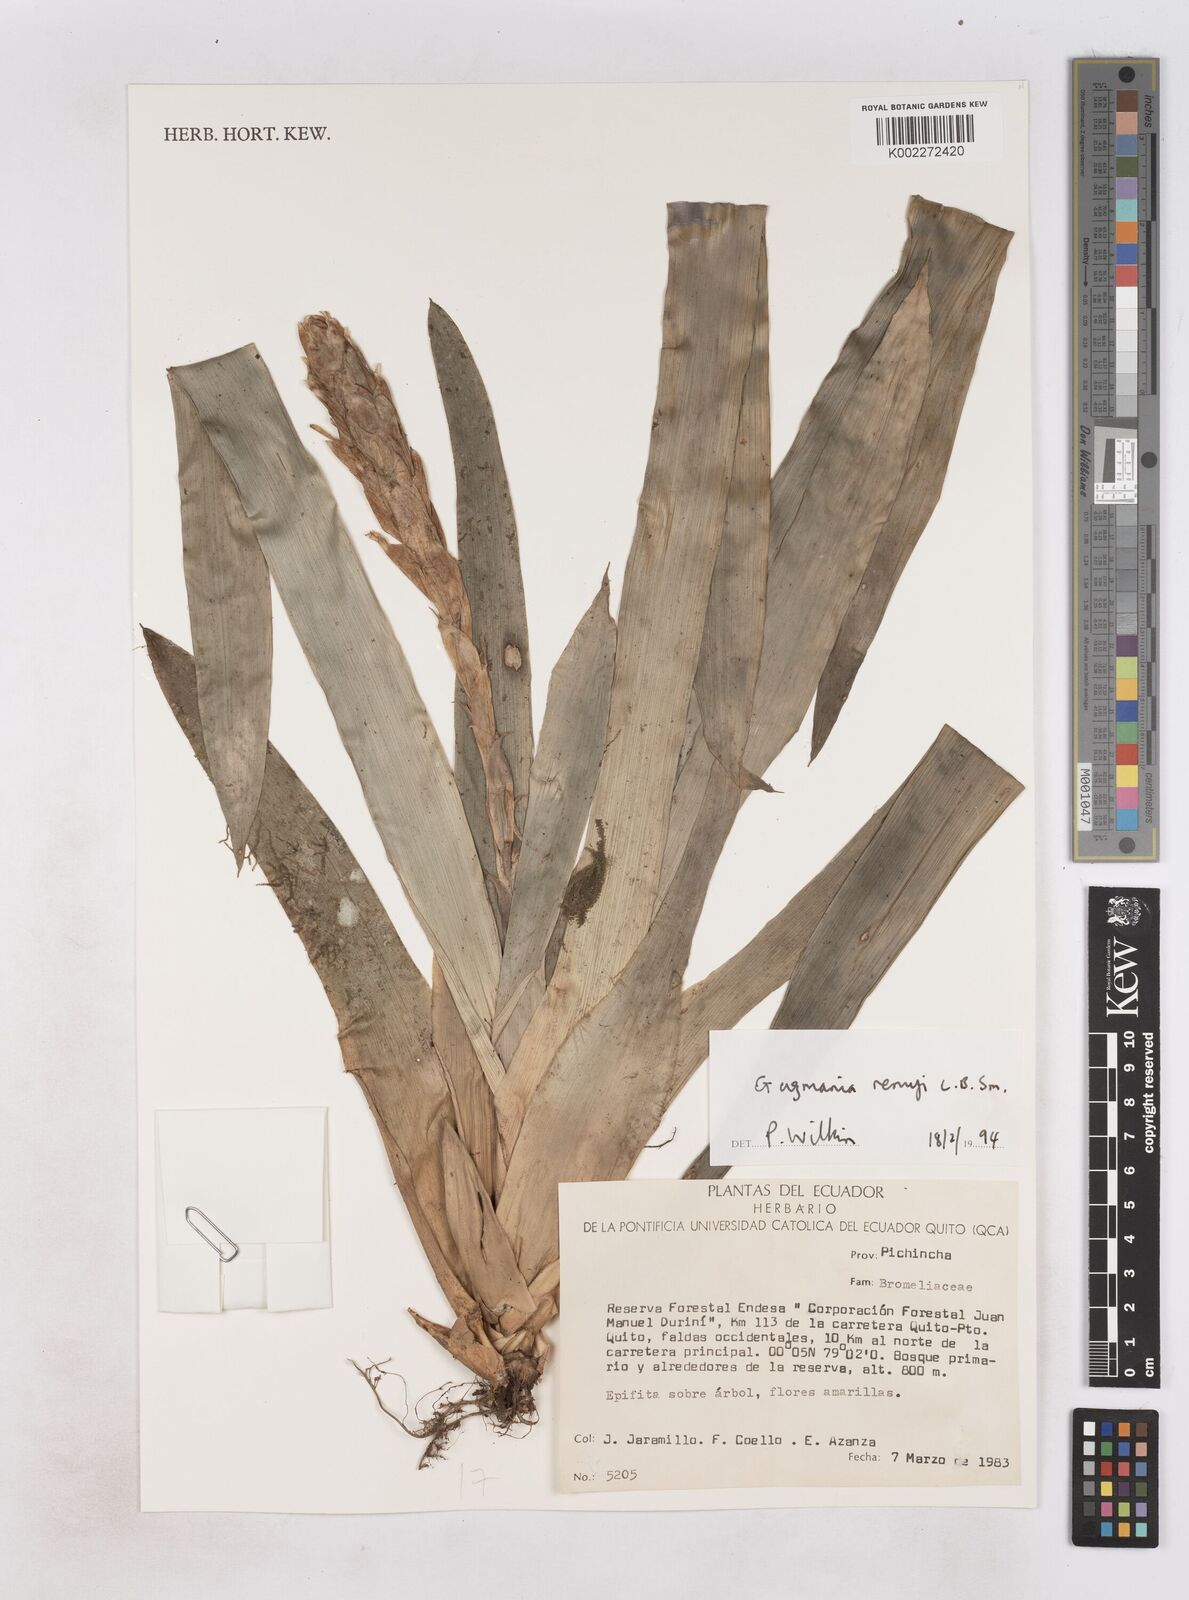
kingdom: Plantae
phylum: Tracheophyta
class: Liliopsida
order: Poales
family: Bromeliaceae
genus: Guzmania
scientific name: Guzmania remyi
